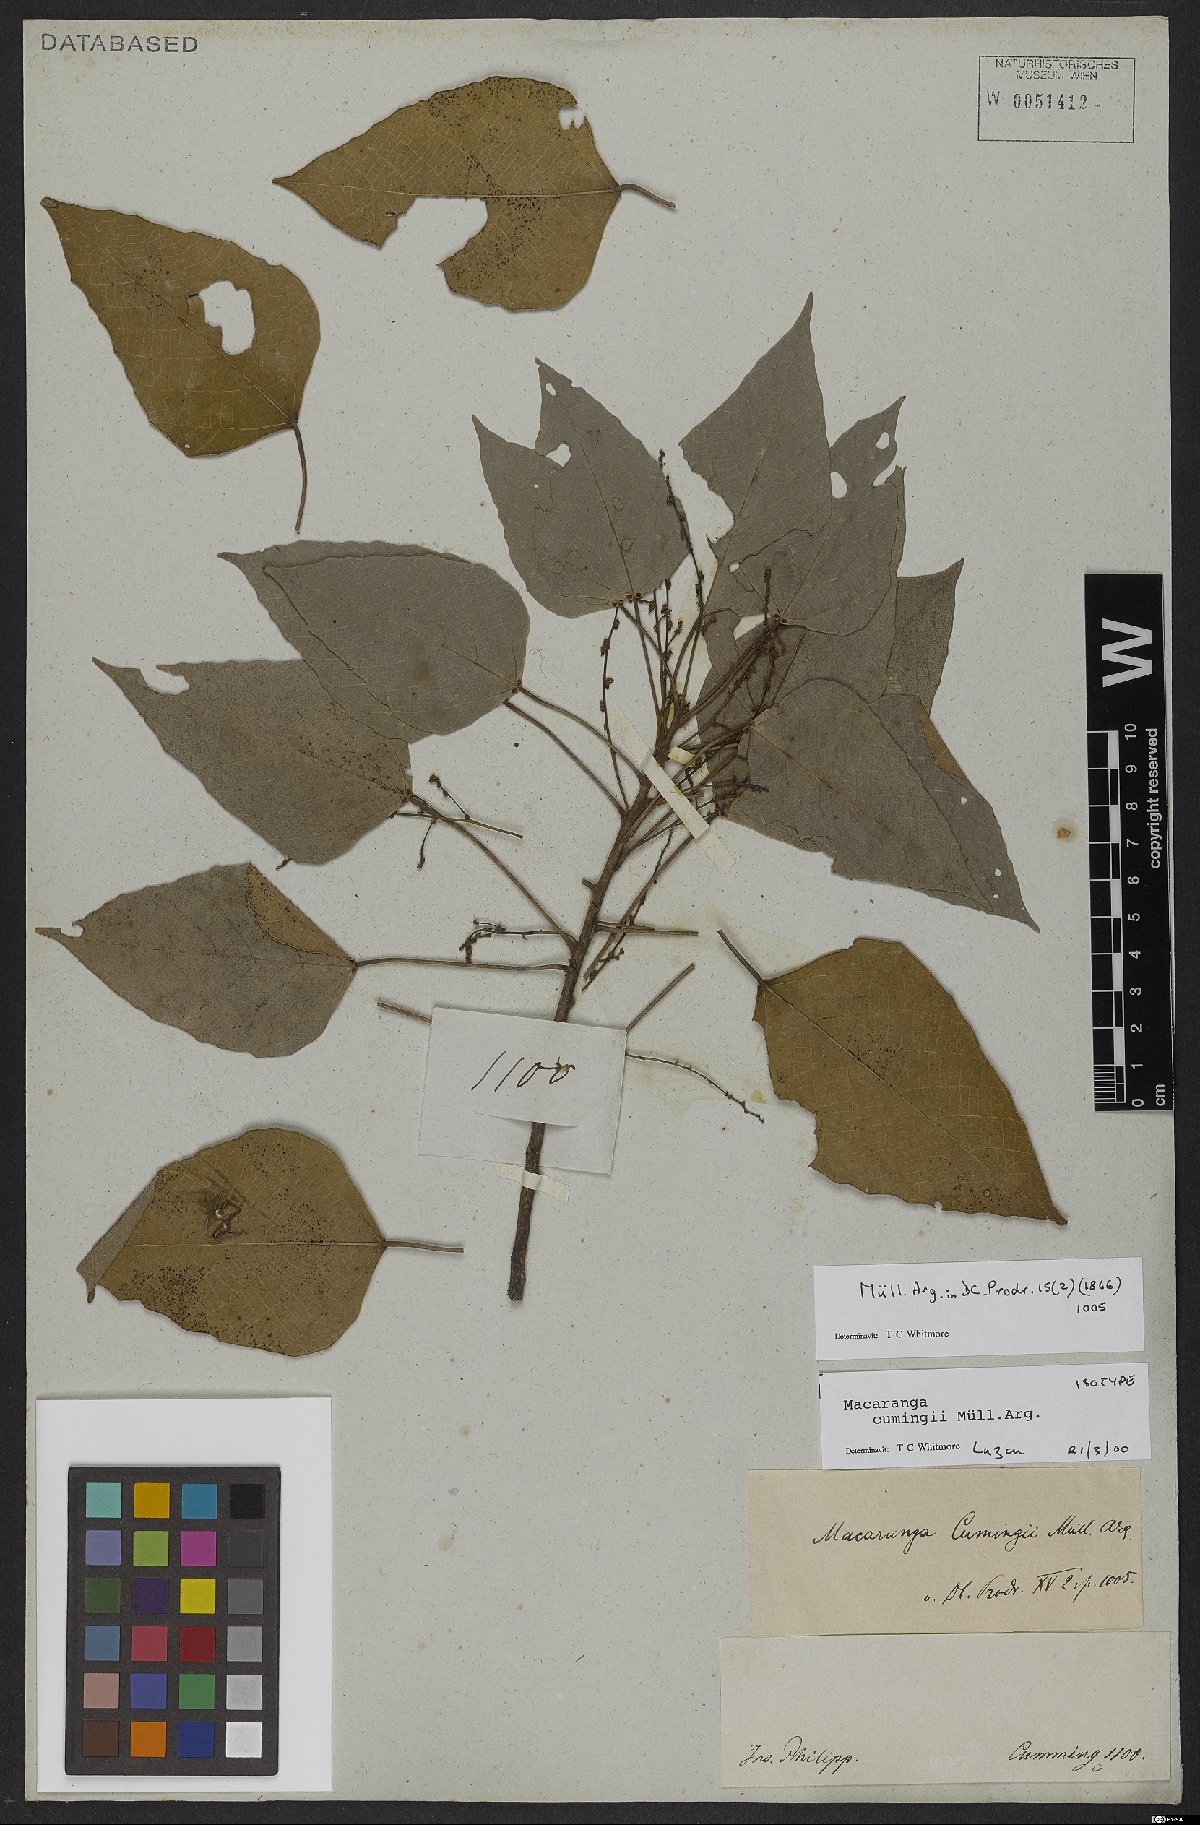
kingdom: Plantae
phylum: Tracheophyta
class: Magnoliopsida
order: Malpighiales
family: Euphorbiaceae
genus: Macaranga
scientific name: Macaranga cumingii
